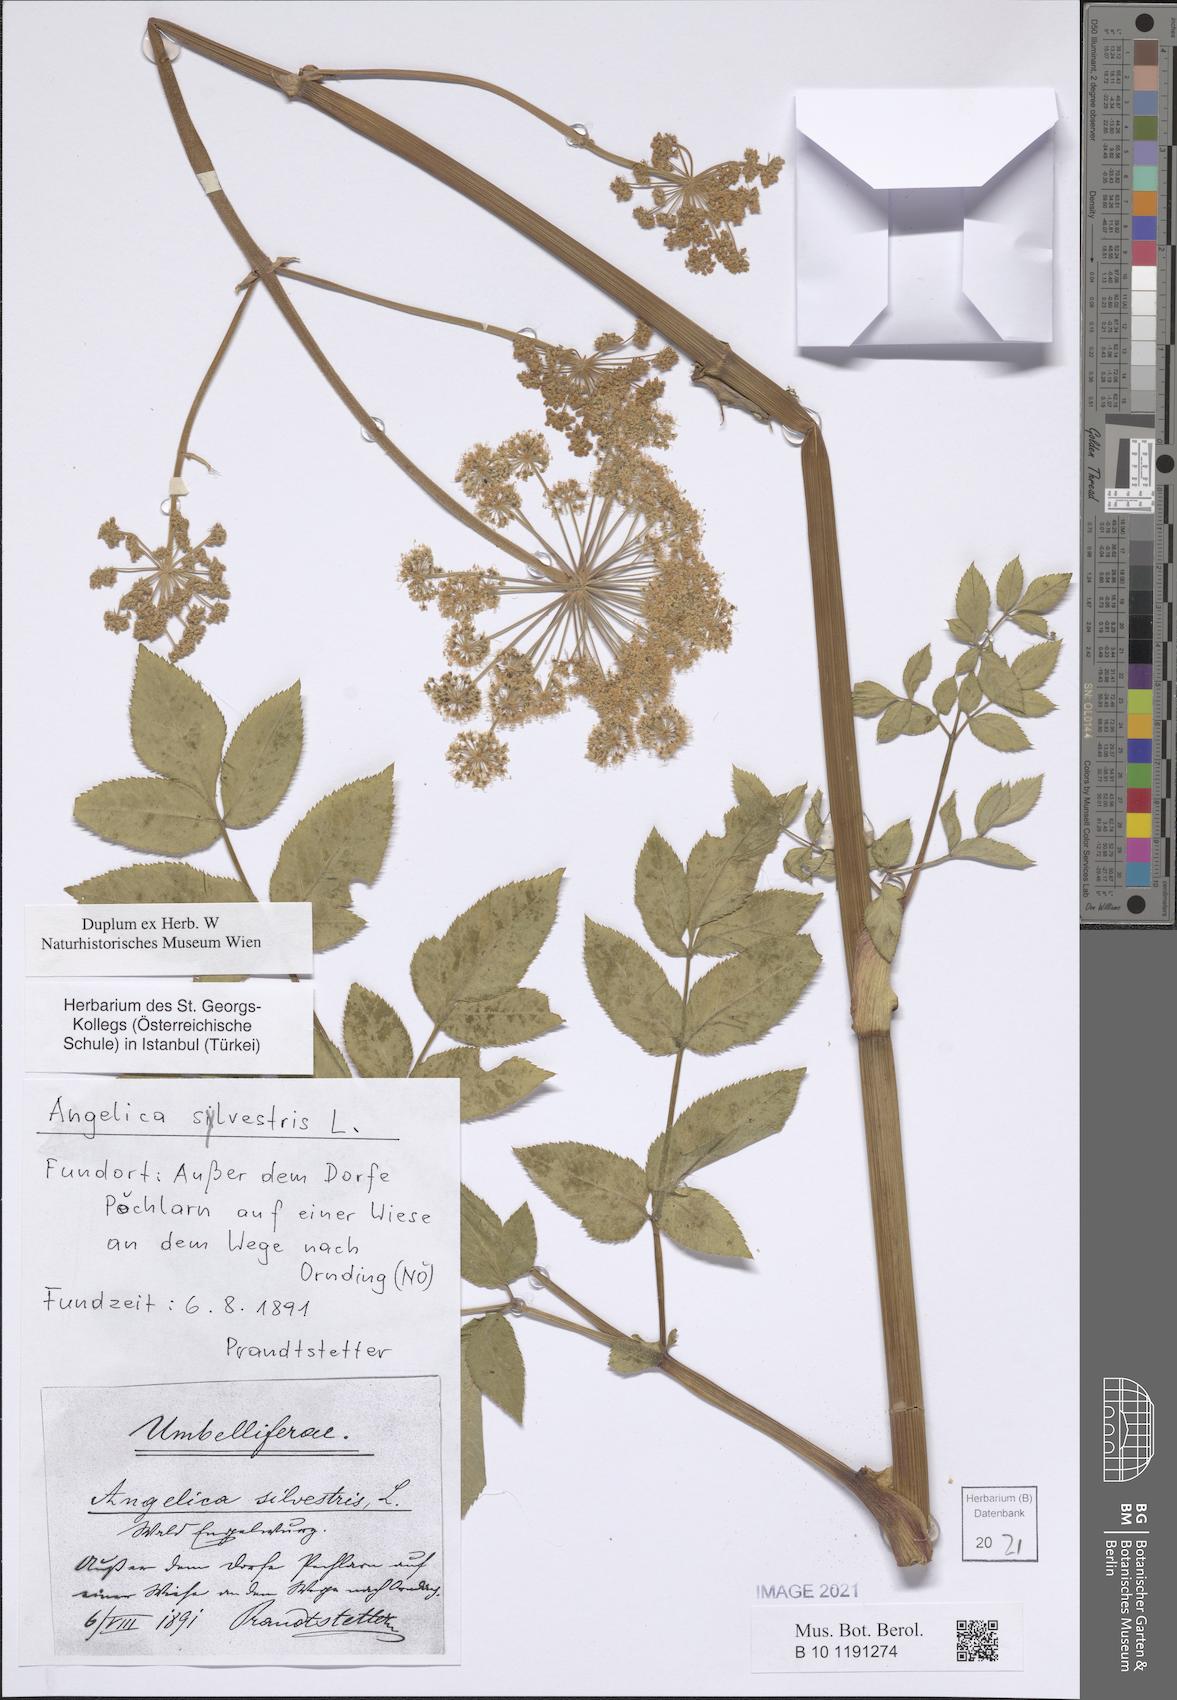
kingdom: Plantae
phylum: Tracheophyta
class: Magnoliopsida
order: Apiales
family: Apiaceae
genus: Angelica
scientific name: Angelica sylvestris
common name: Wild angelica
